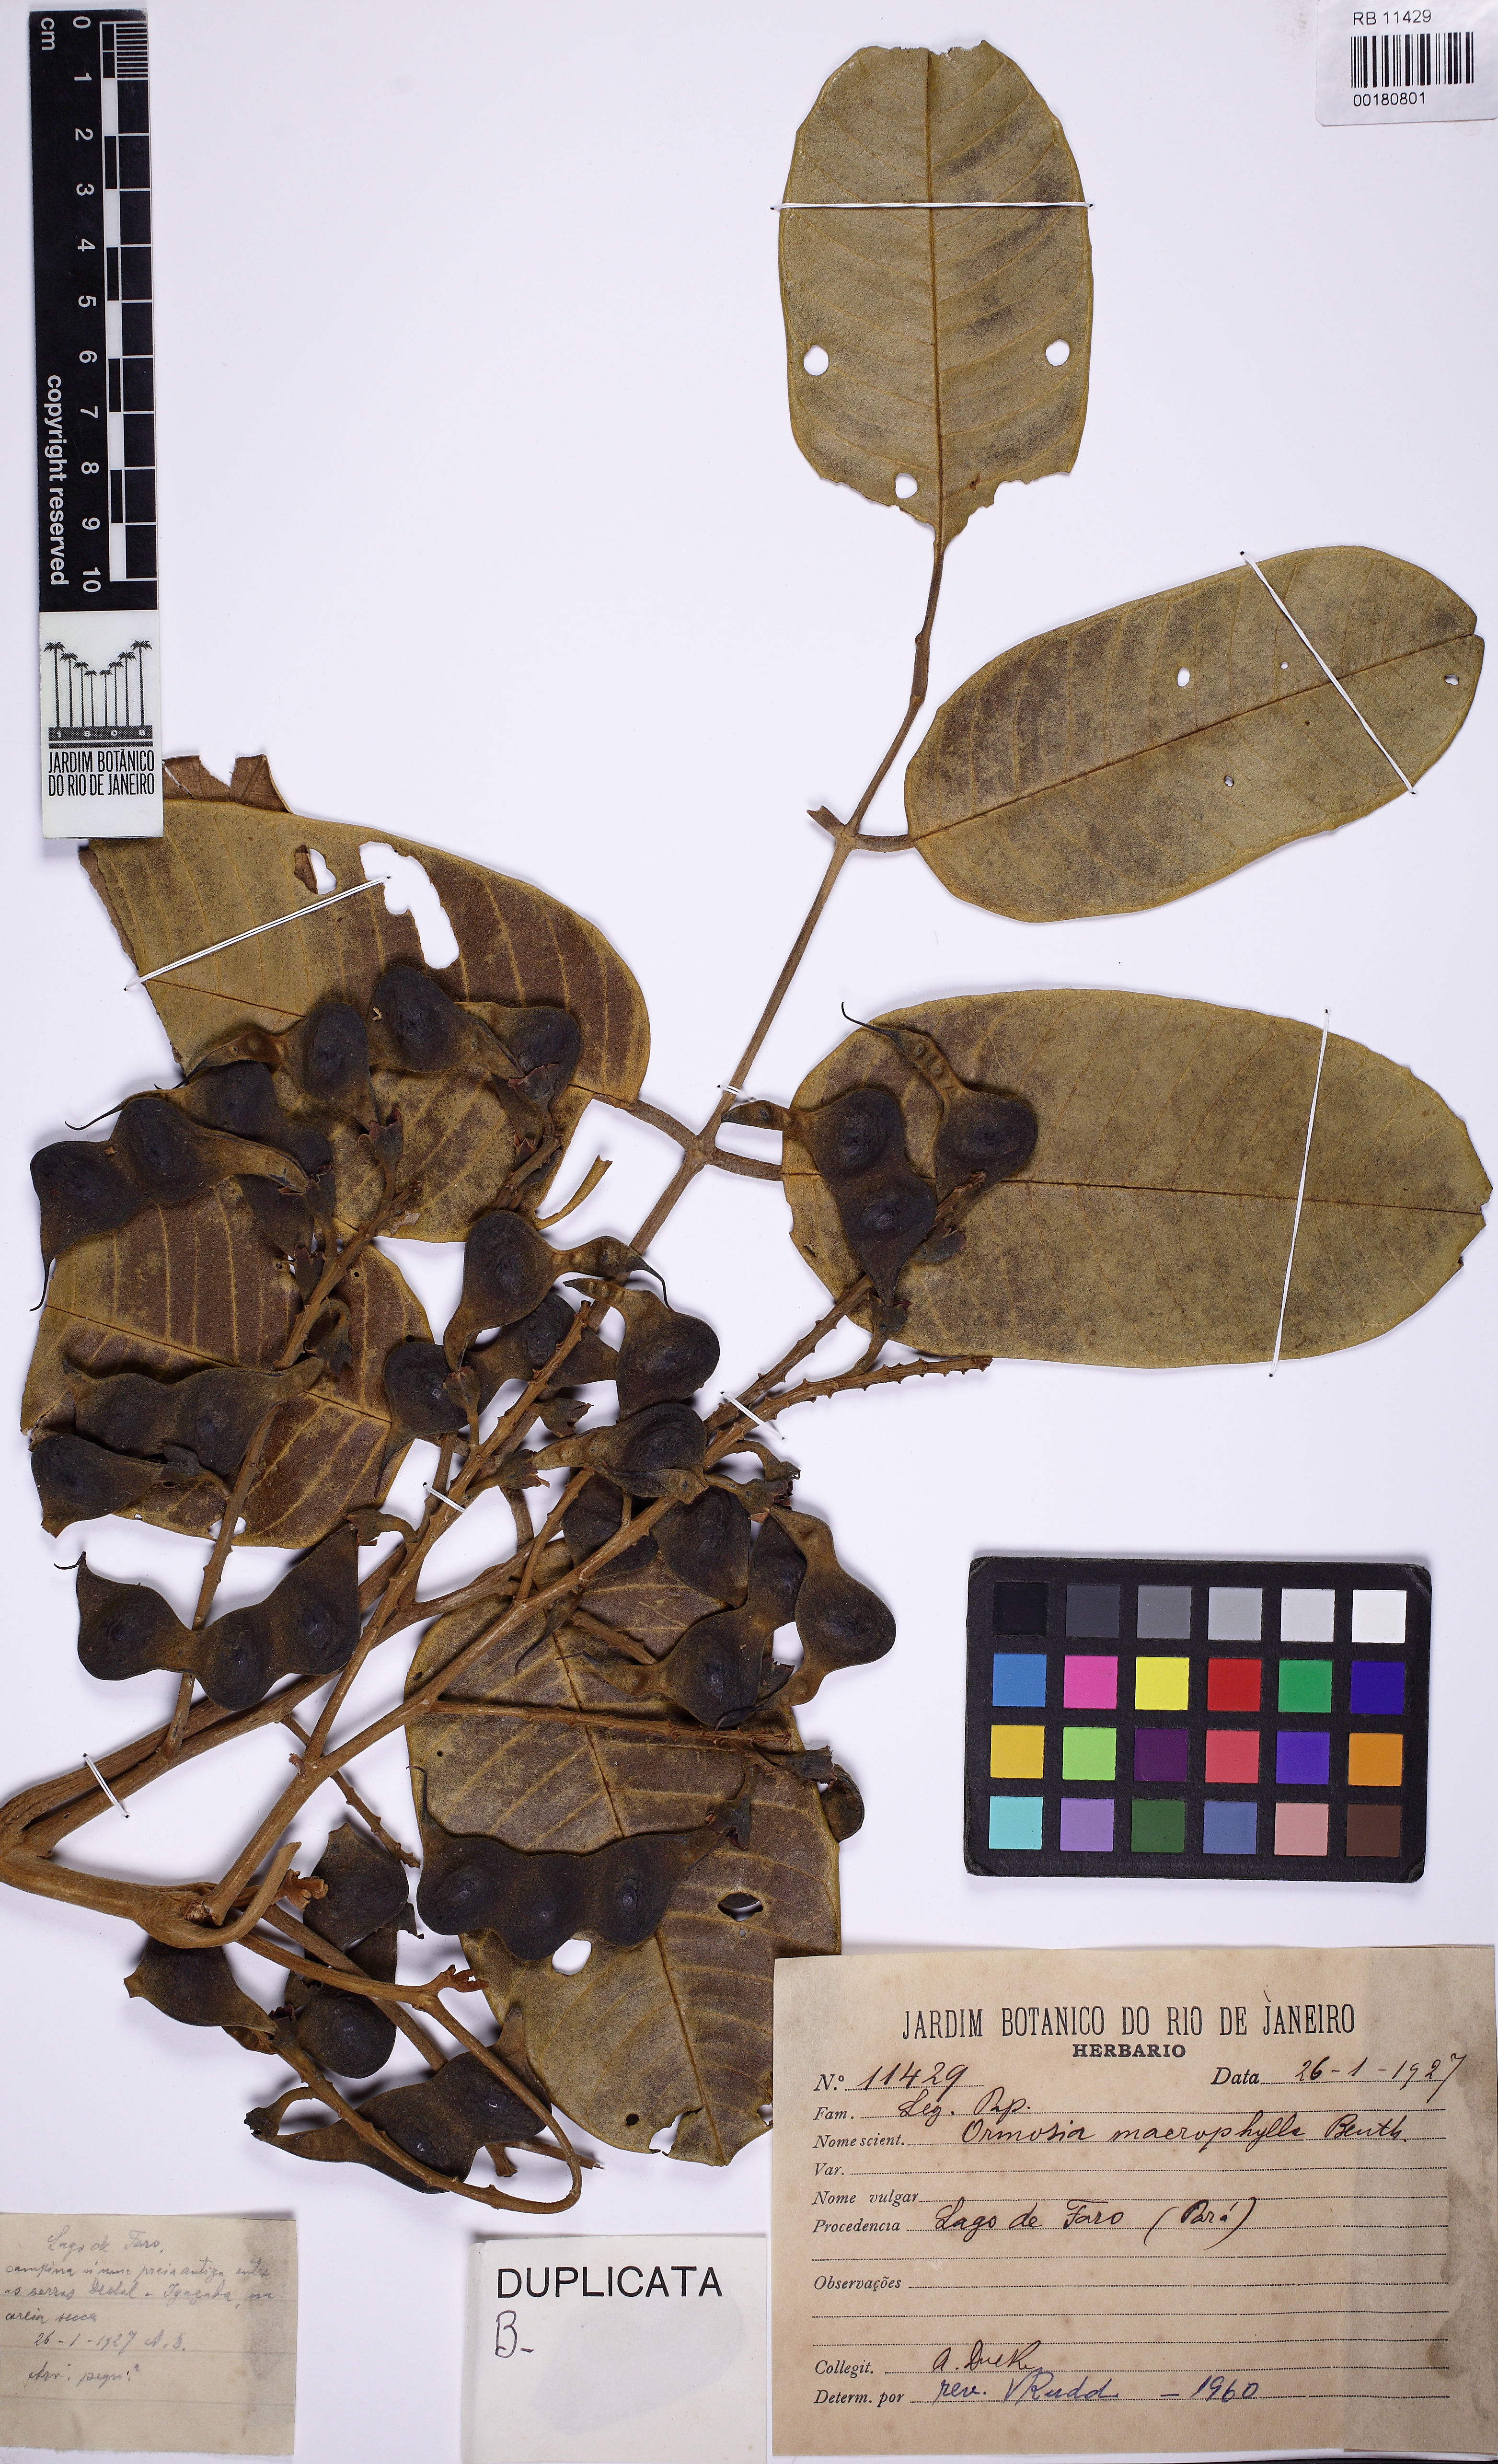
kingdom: Plantae
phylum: Tracheophyta
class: Magnoliopsida
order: Fabales
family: Fabaceae
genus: Ormosia
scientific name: Ormosia macrophylla
